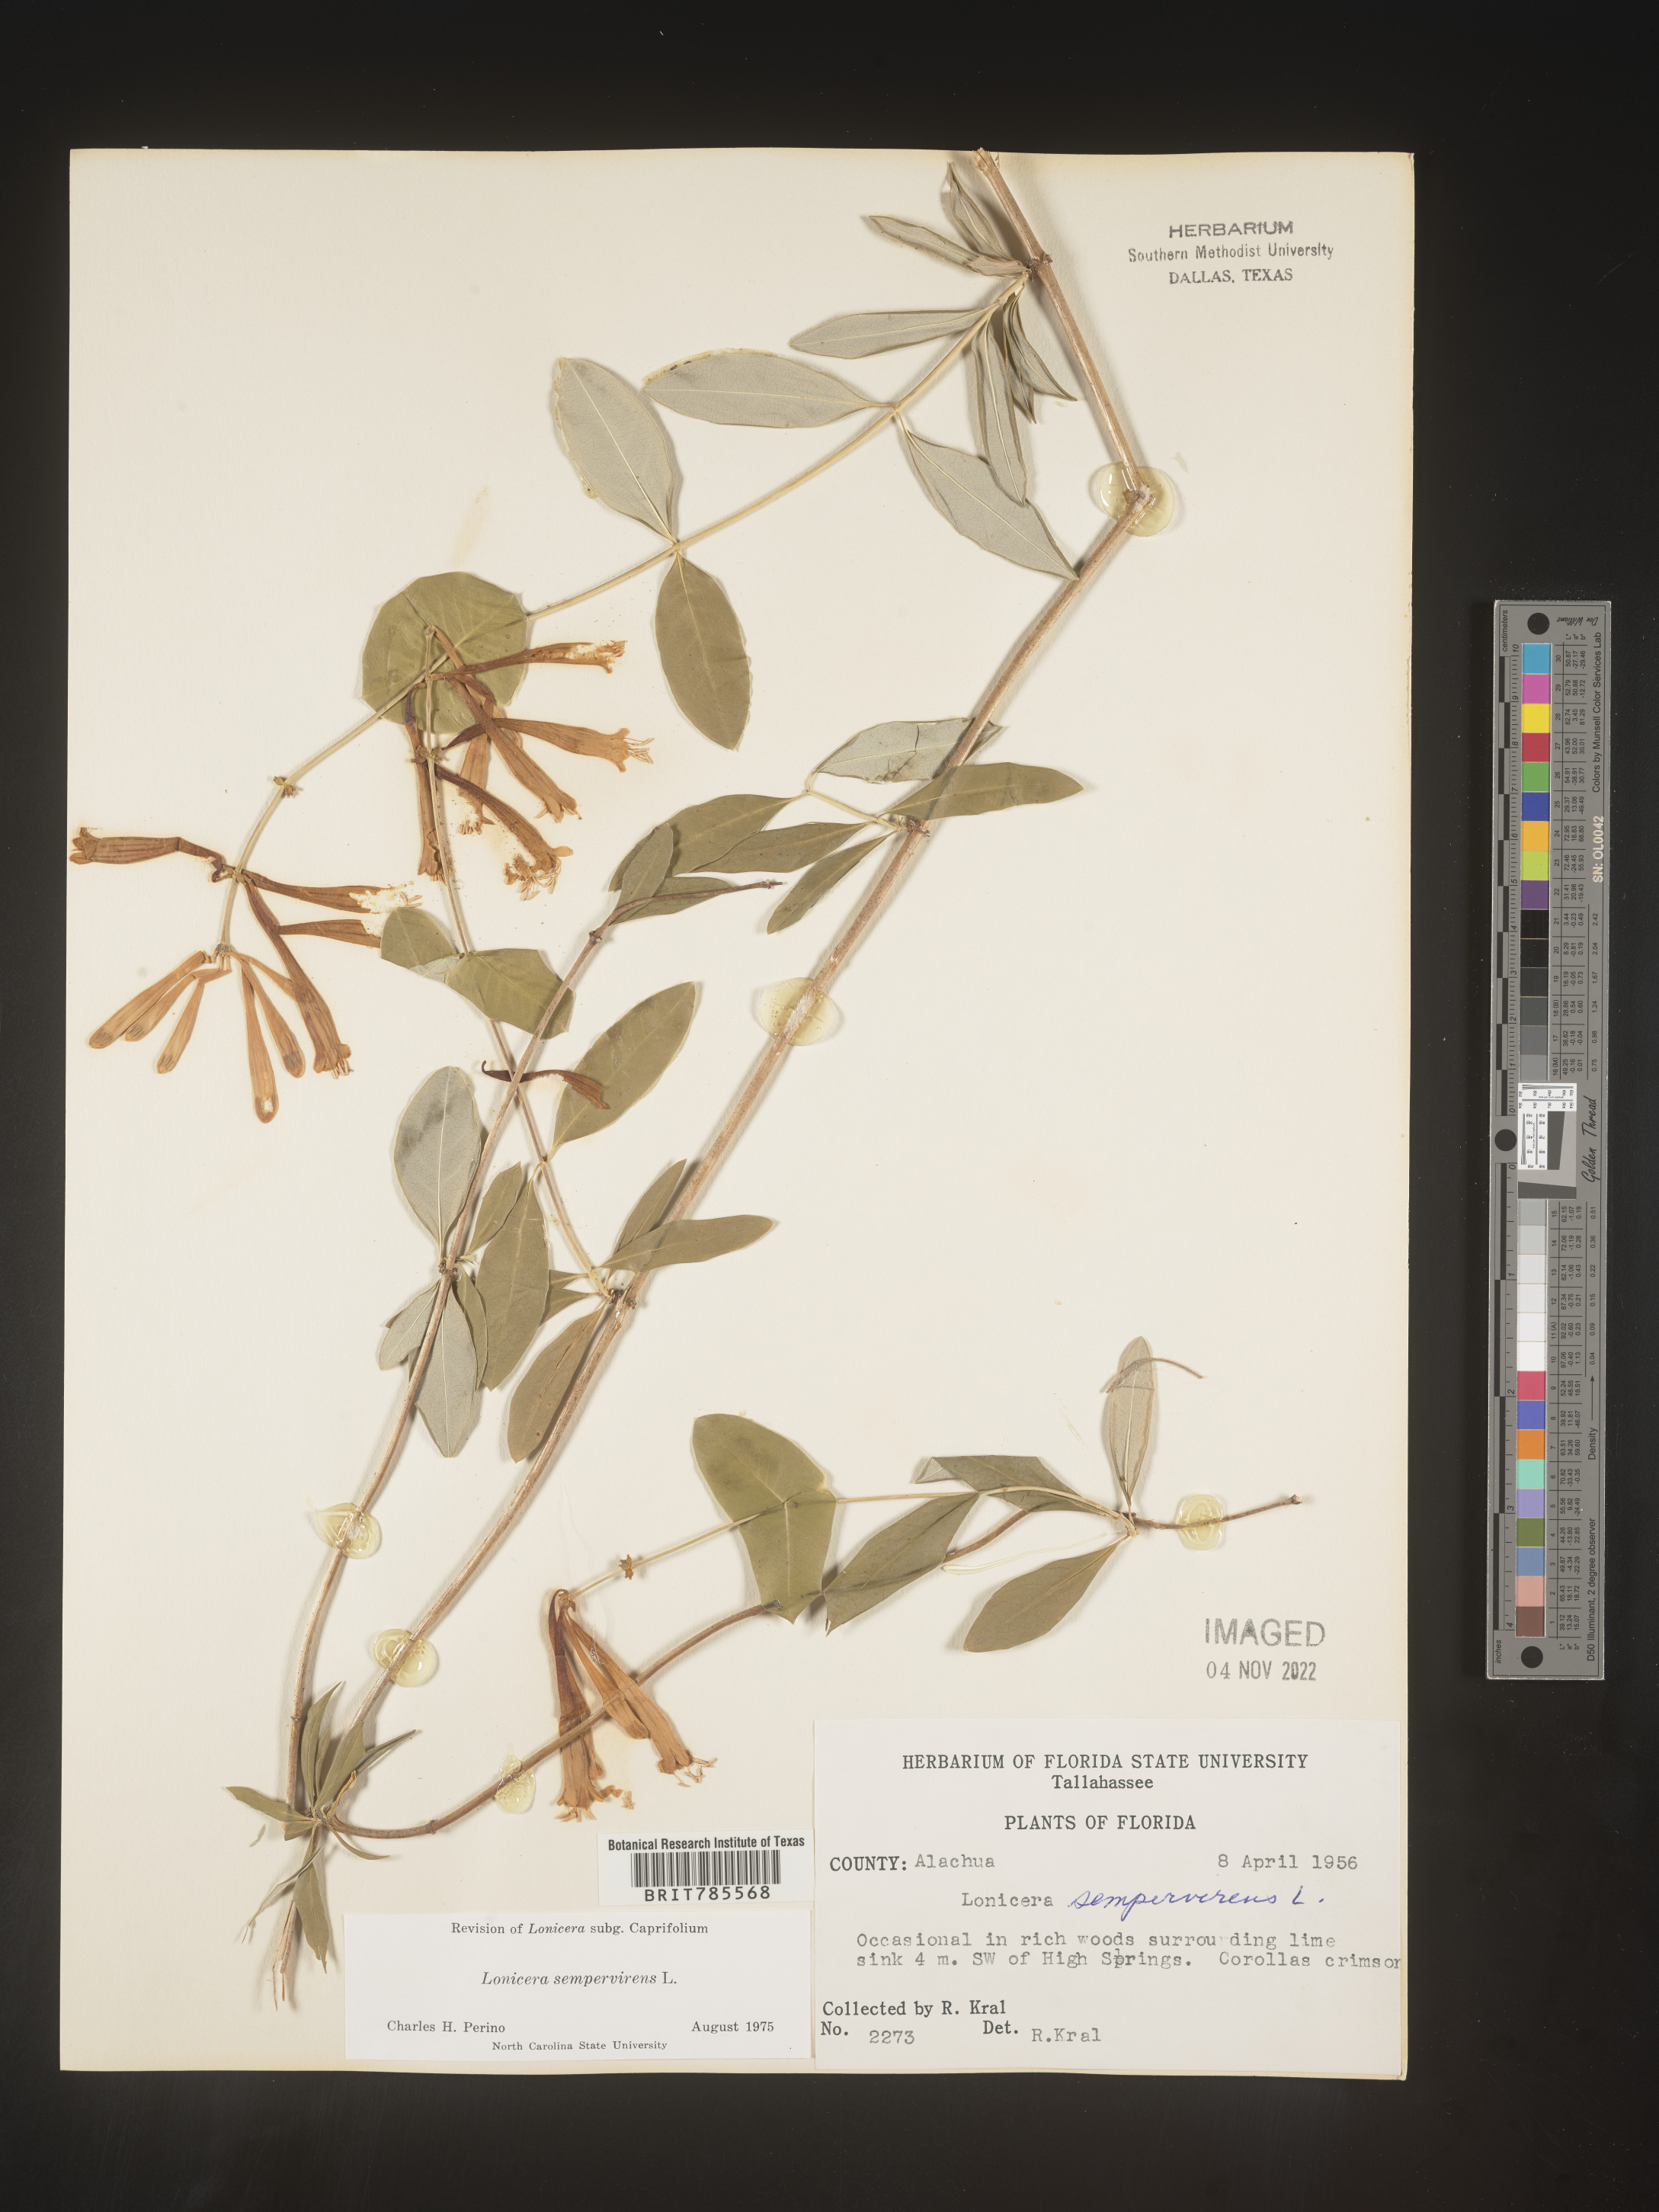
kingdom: Plantae
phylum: Tracheophyta
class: Magnoliopsida
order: Dipsacales
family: Caprifoliaceae
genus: Lonicera
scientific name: Lonicera sempervirens
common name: Coral honeysuckle
